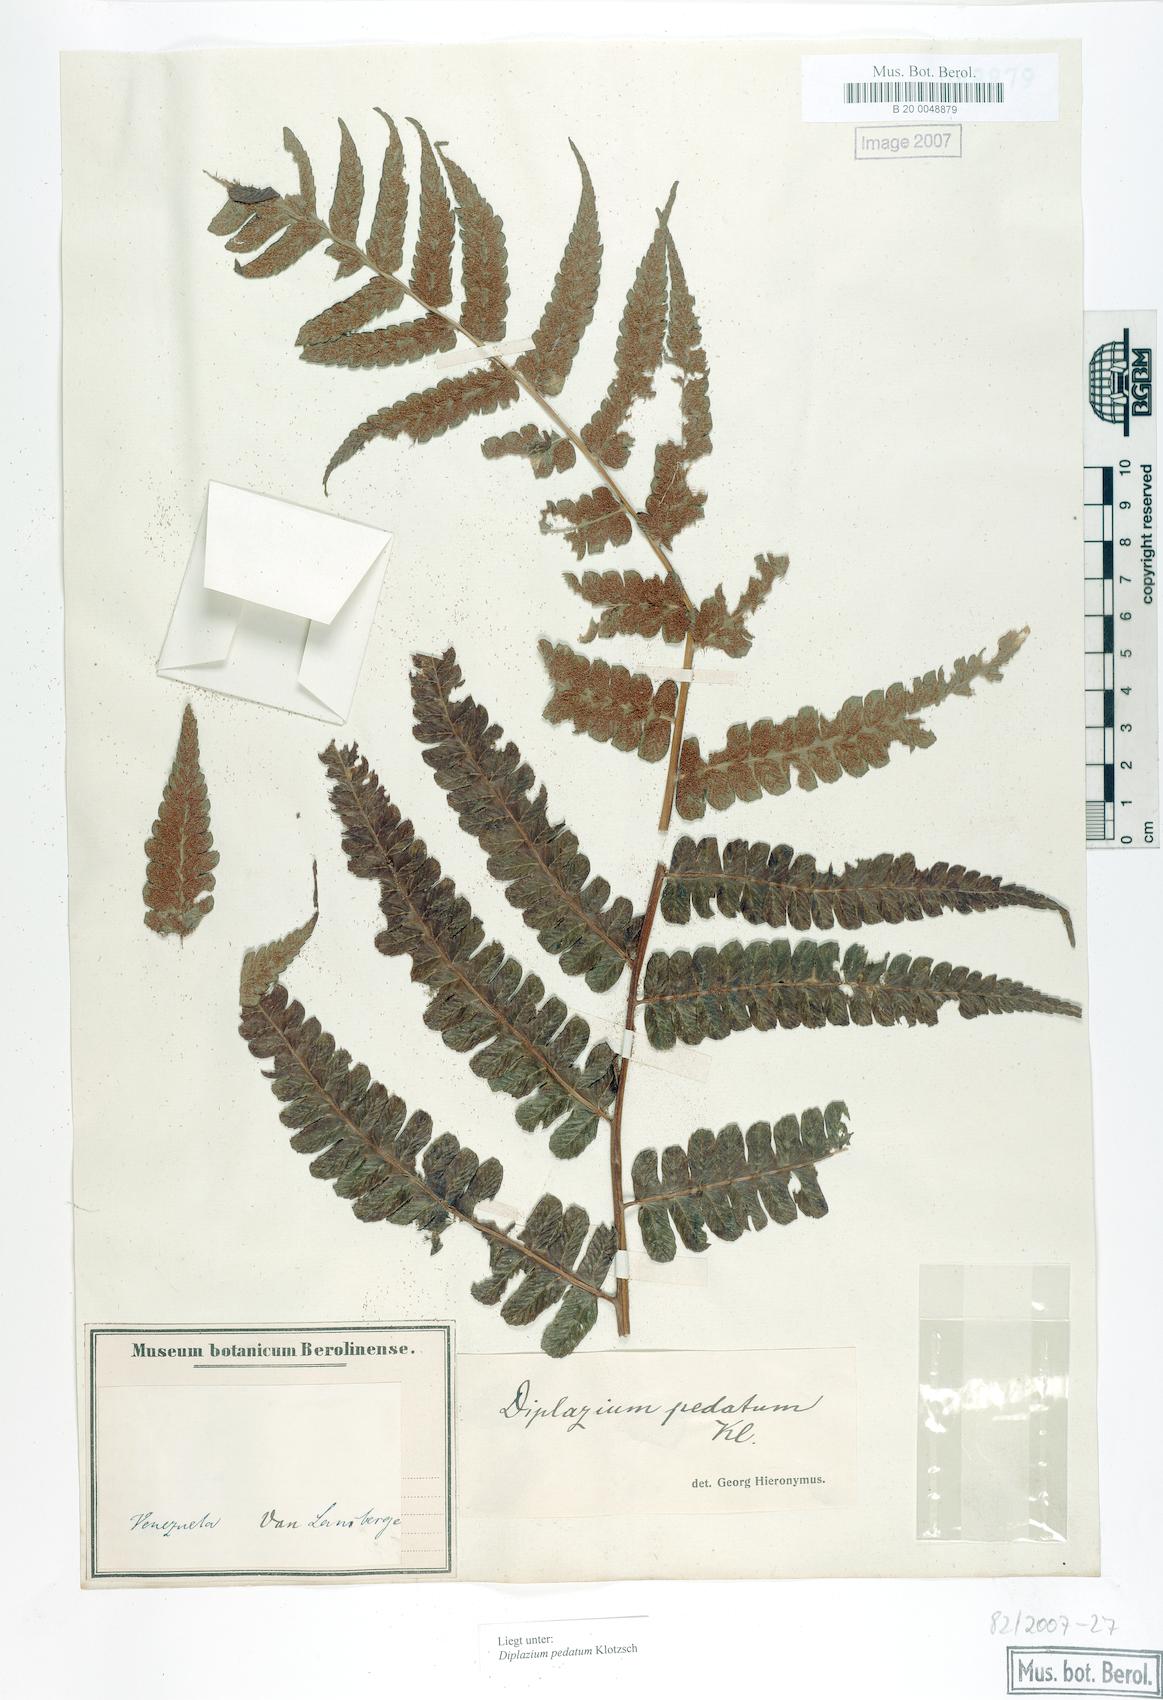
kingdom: Plantae
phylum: Tracheophyta
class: Polypodiopsida
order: Polypodiales
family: Athyriaceae
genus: Diplazium
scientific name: Diplazium pedatum
